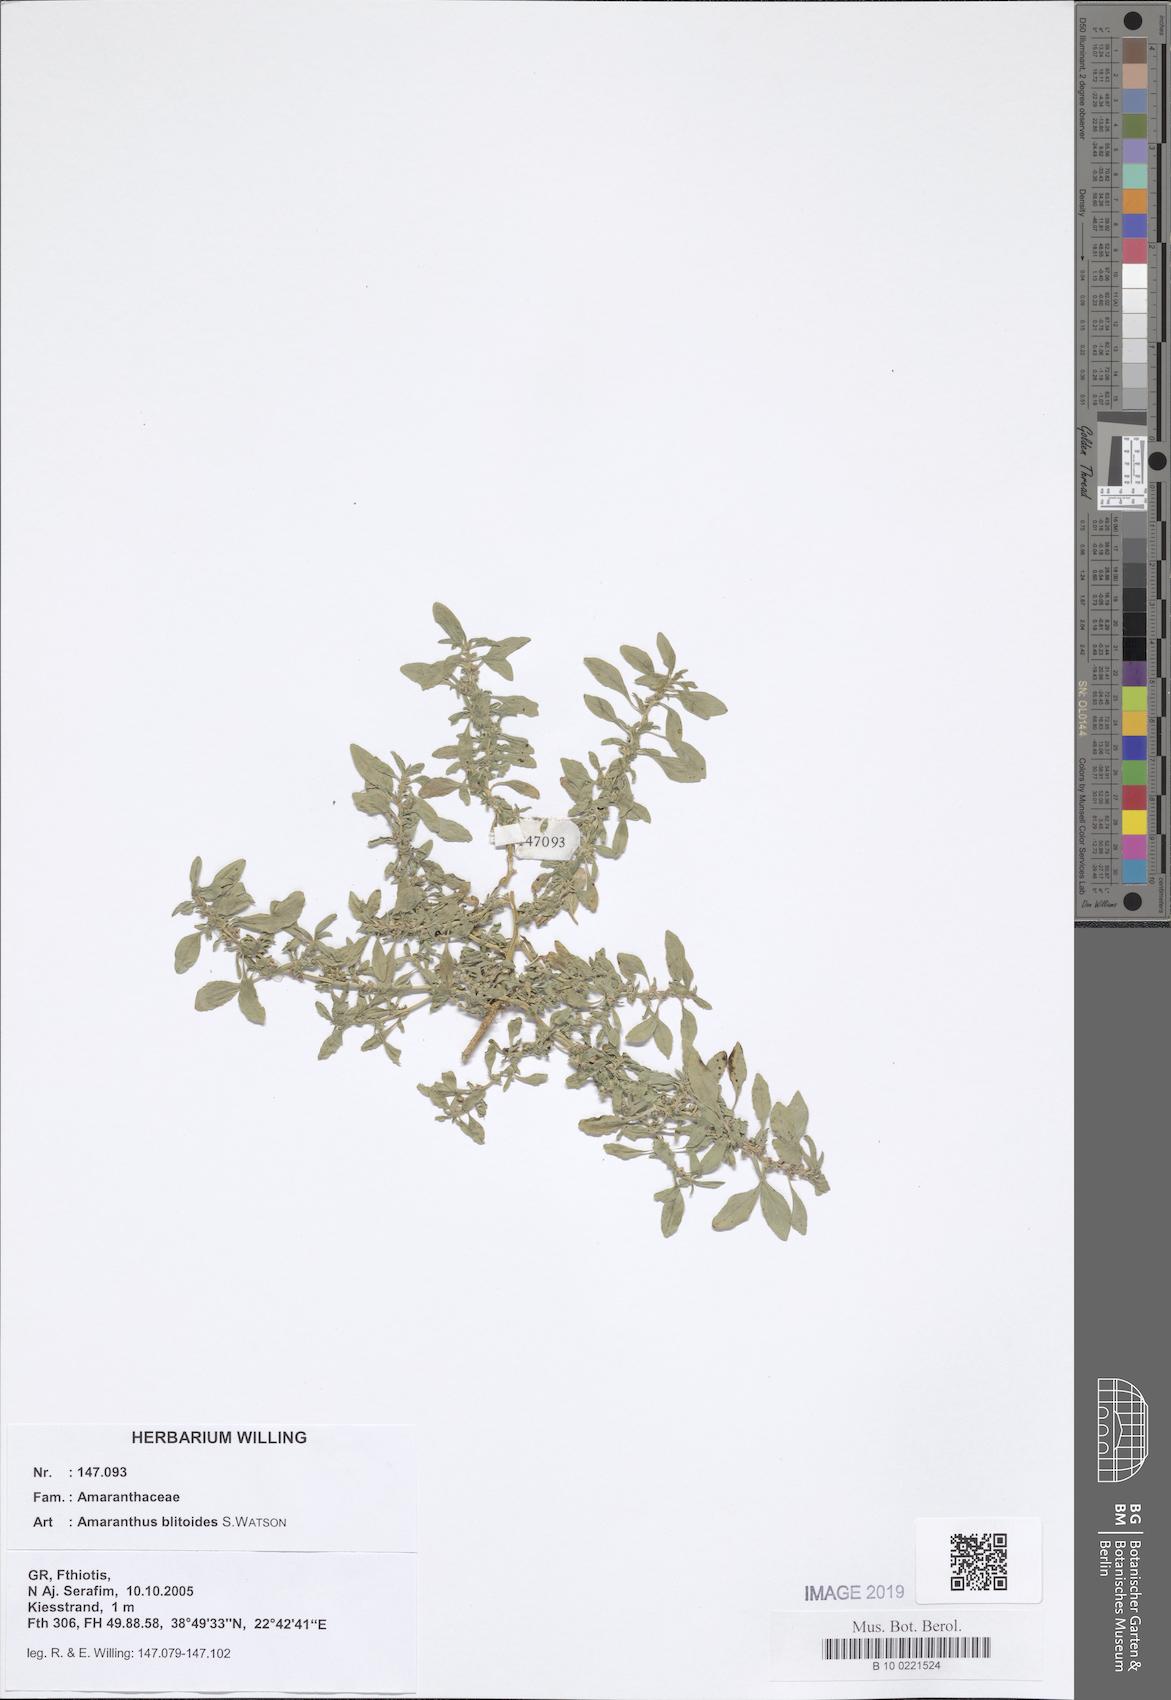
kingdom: Plantae
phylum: Tracheophyta
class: Magnoliopsida
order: Caryophyllales
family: Amaranthaceae
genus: Amaranthus
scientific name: Amaranthus blitoides
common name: Prostrate pigweed
